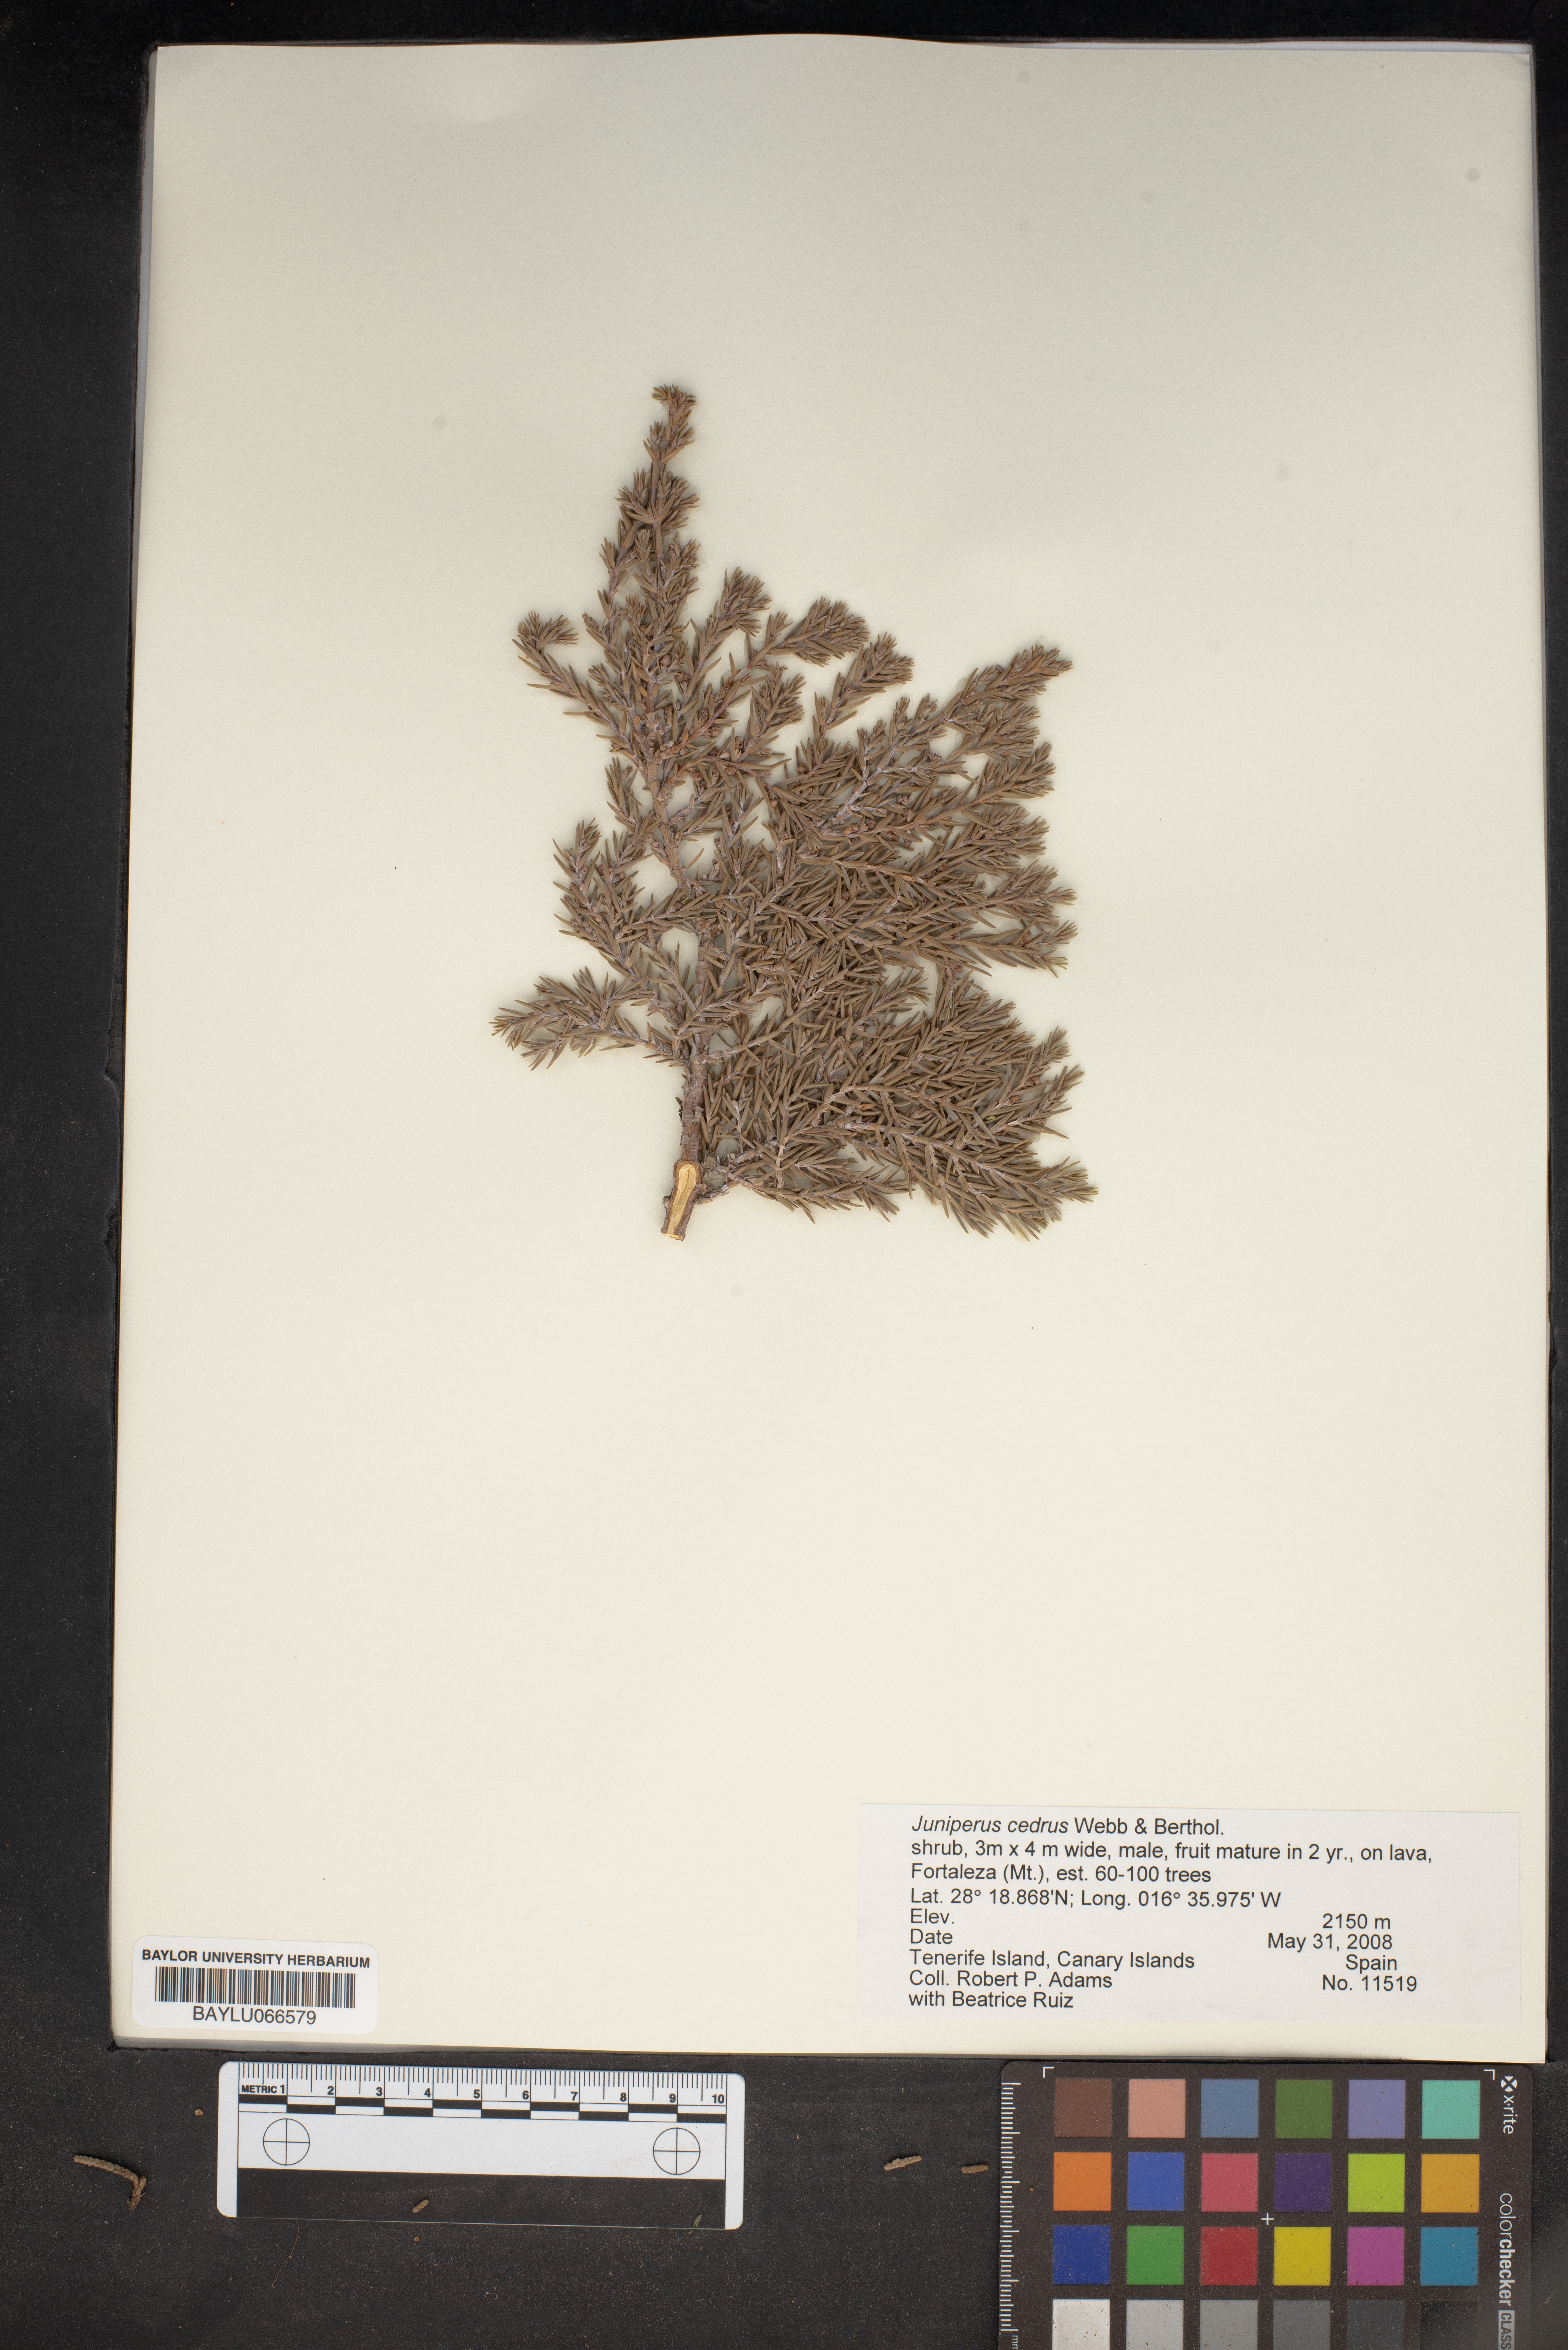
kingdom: Plantae
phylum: Tracheophyta
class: Pinopsida
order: Pinales
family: Cupressaceae
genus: Juniperus
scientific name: Juniperus cedrus
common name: Canary islands juniper
